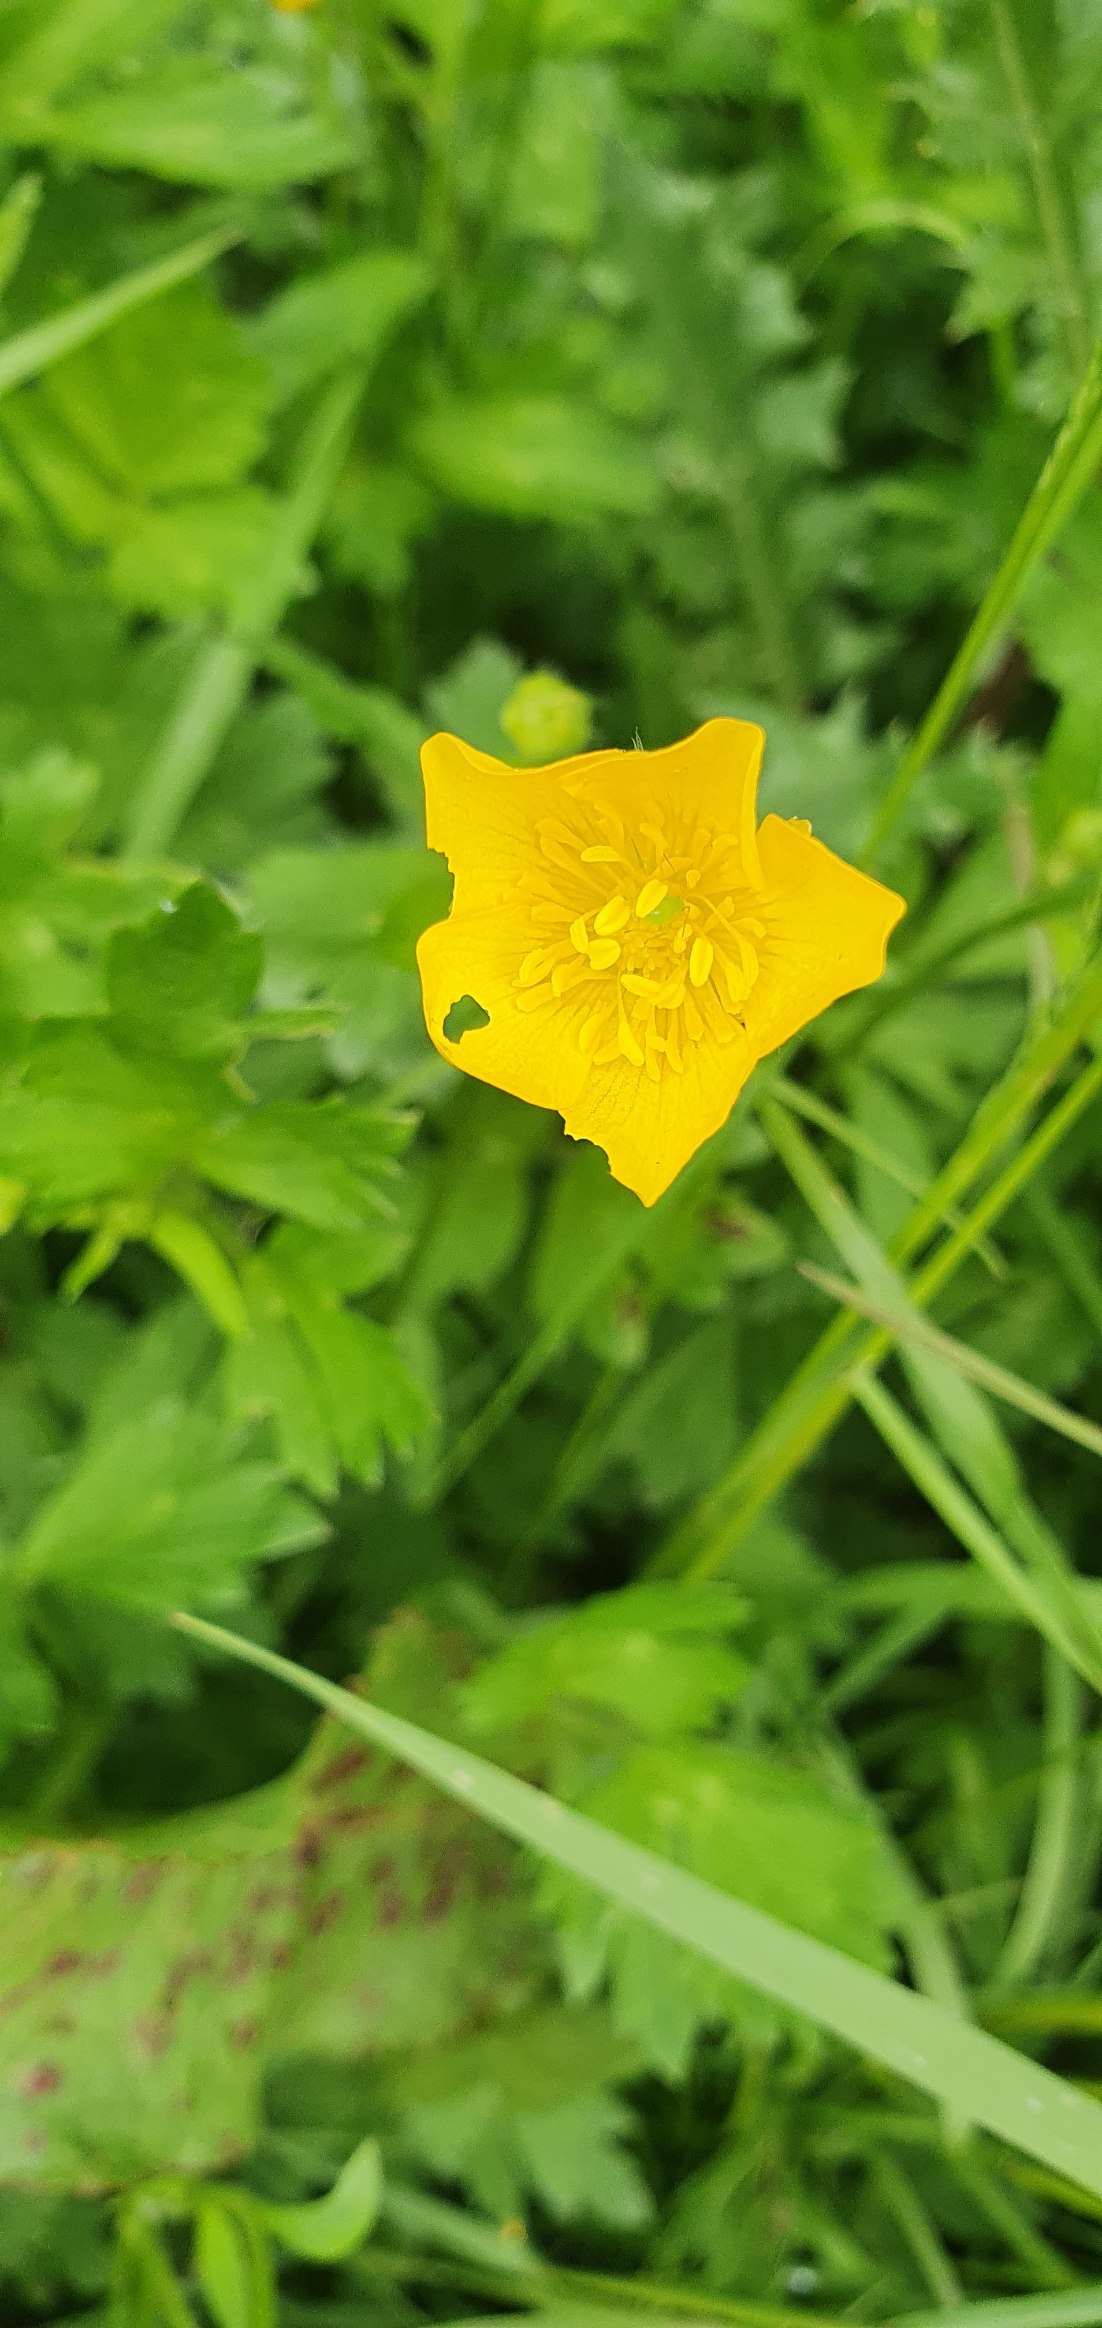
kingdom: Plantae
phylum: Tracheophyta
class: Magnoliopsida
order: Ranunculales
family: Ranunculaceae
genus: Ranunculus
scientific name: Ranunculus
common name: Ranunkelslægten
